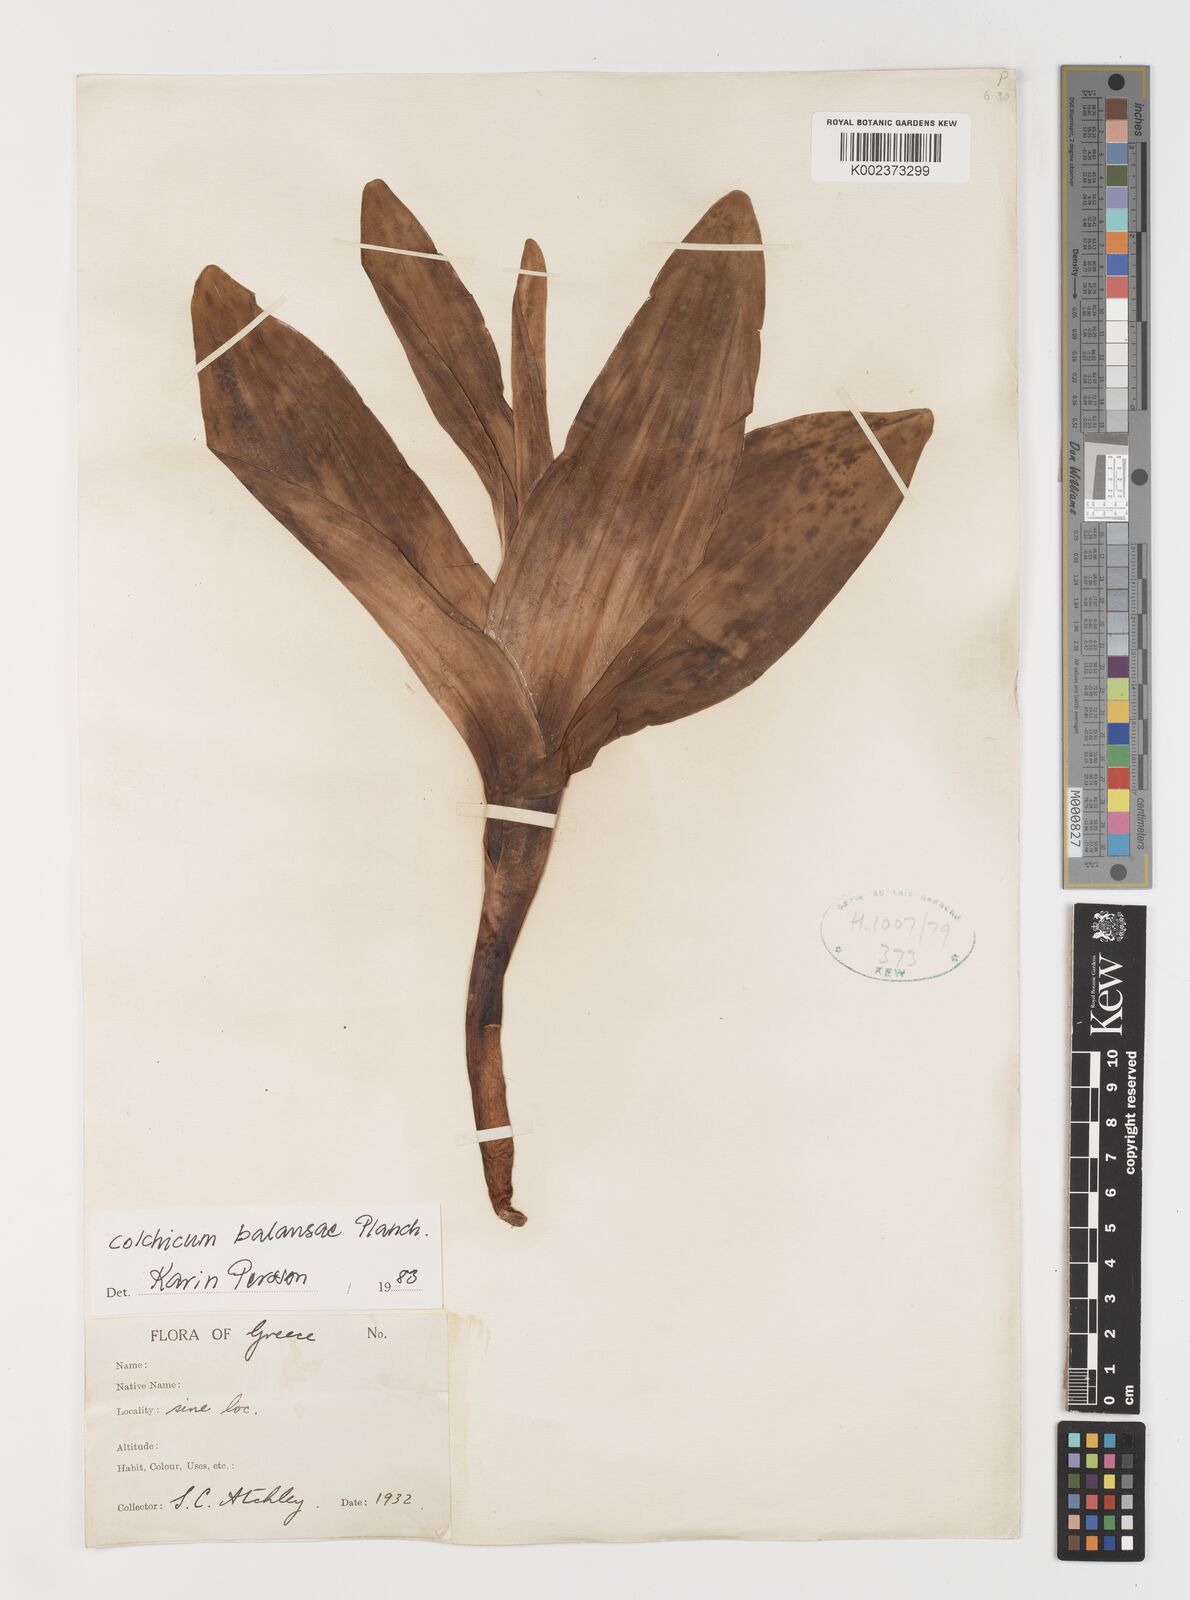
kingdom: Plantae
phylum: Tracheophyta
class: Liliopsida
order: Liliales
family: Colchicaceae
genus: Colchicum
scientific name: Colchicum balansae
